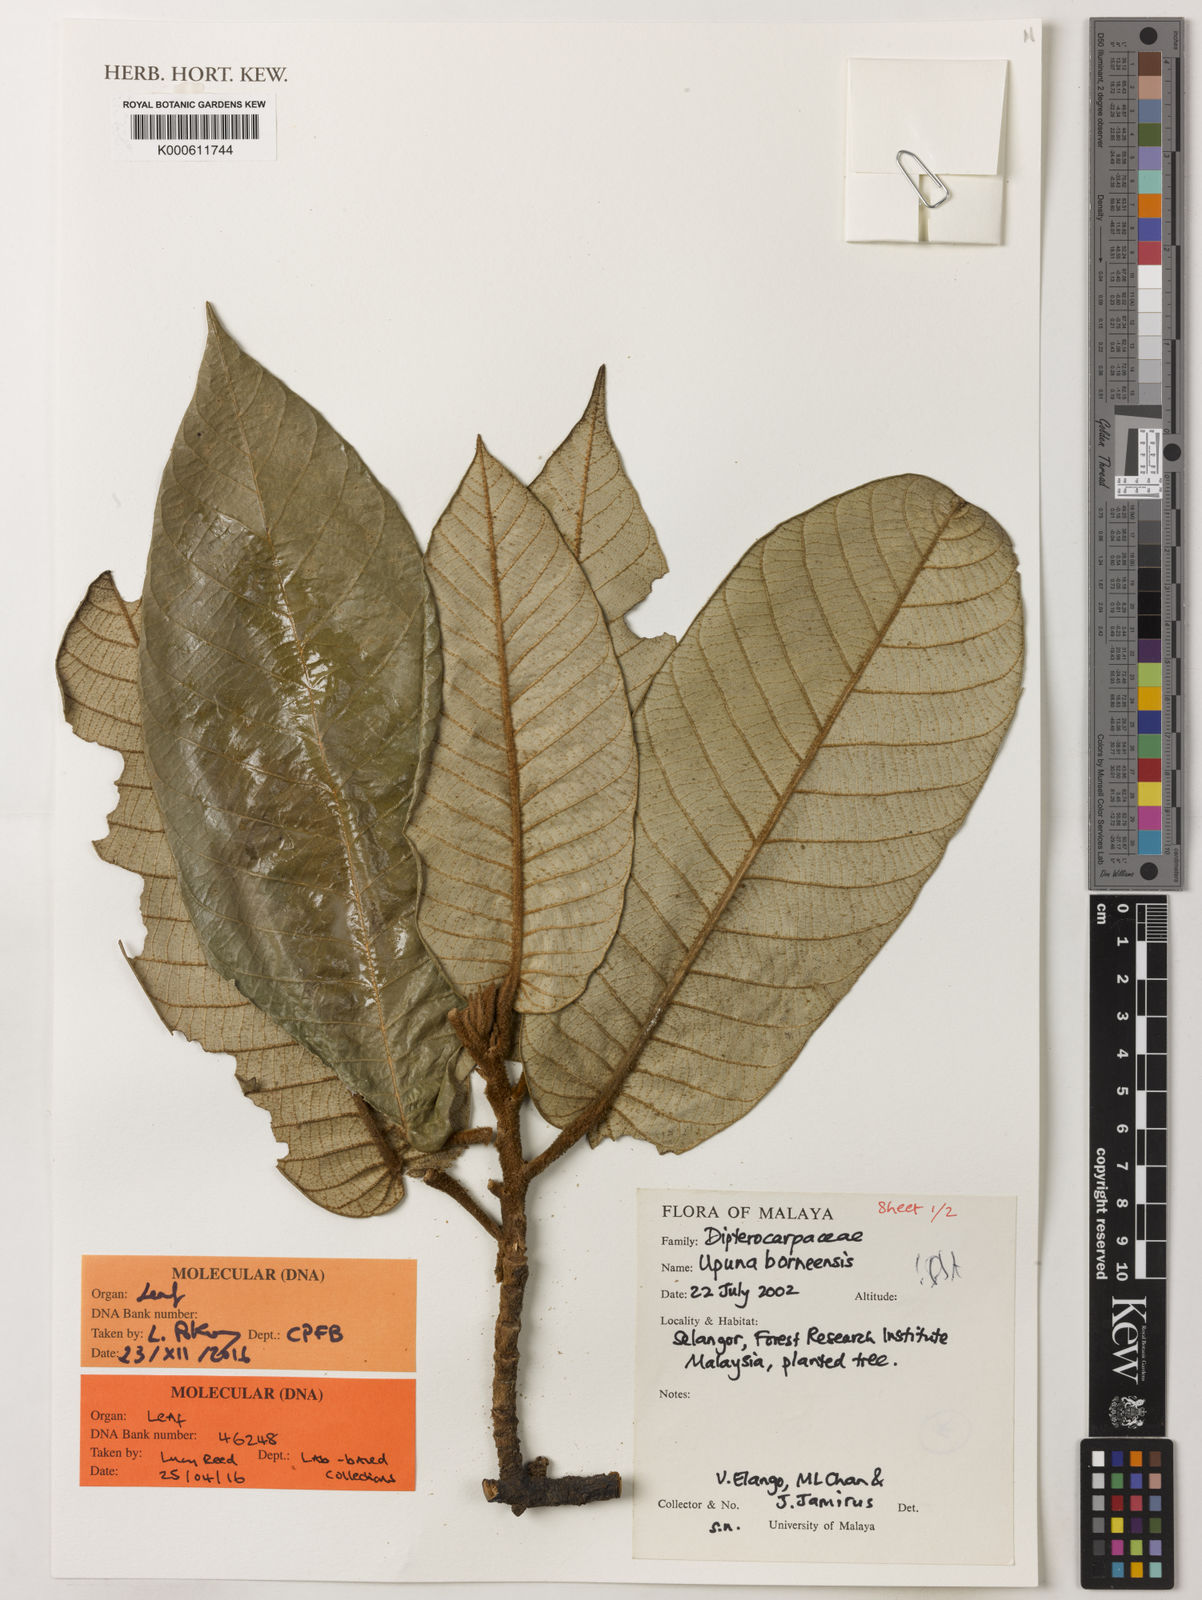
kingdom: Plantae
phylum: Tracheophyta
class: Magnoliopsida
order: Malvales
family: Dipterocarpaceae
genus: Upuna
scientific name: Upuna borneensis
